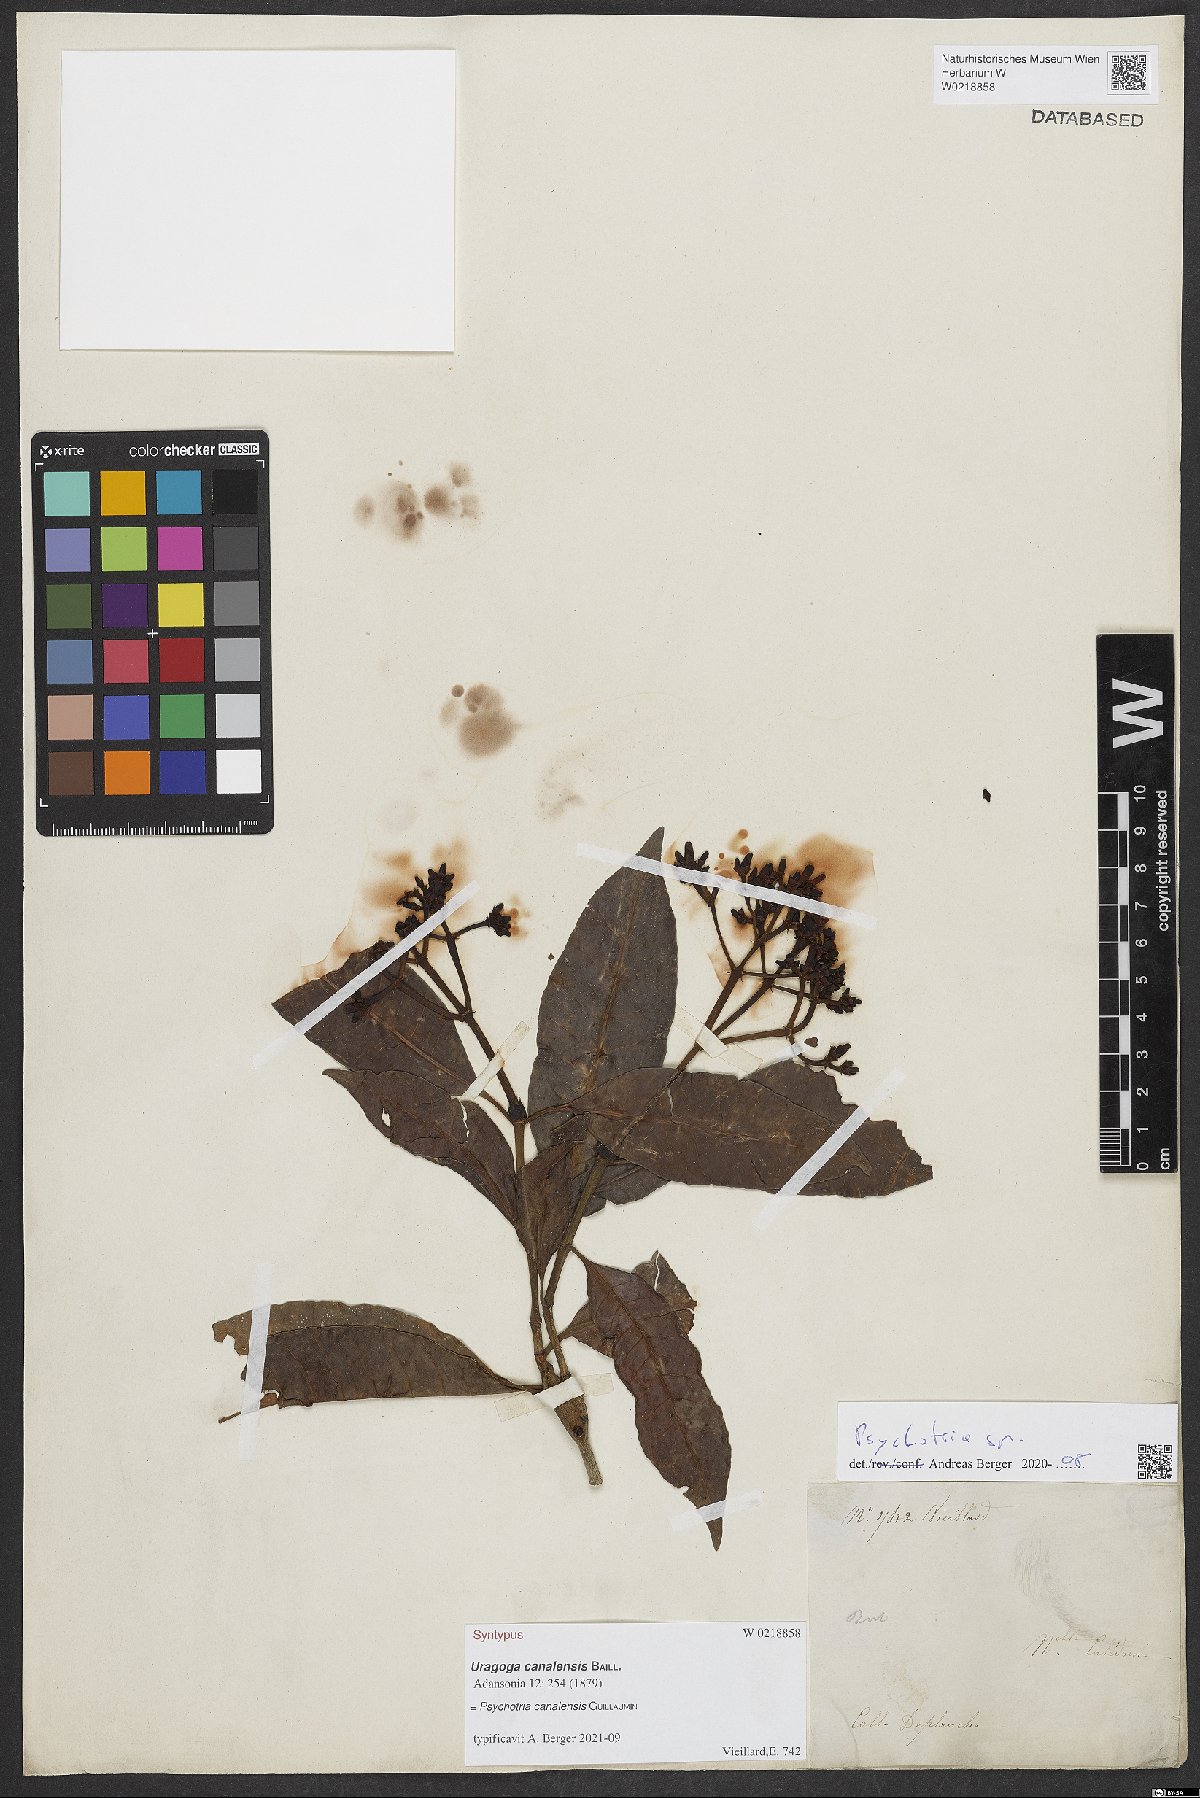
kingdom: Plantae
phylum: Tracheophyta
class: Magnoliopsida
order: Gentianales
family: Rubiaceae
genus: Psychotria
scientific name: Psychotria canalensis
